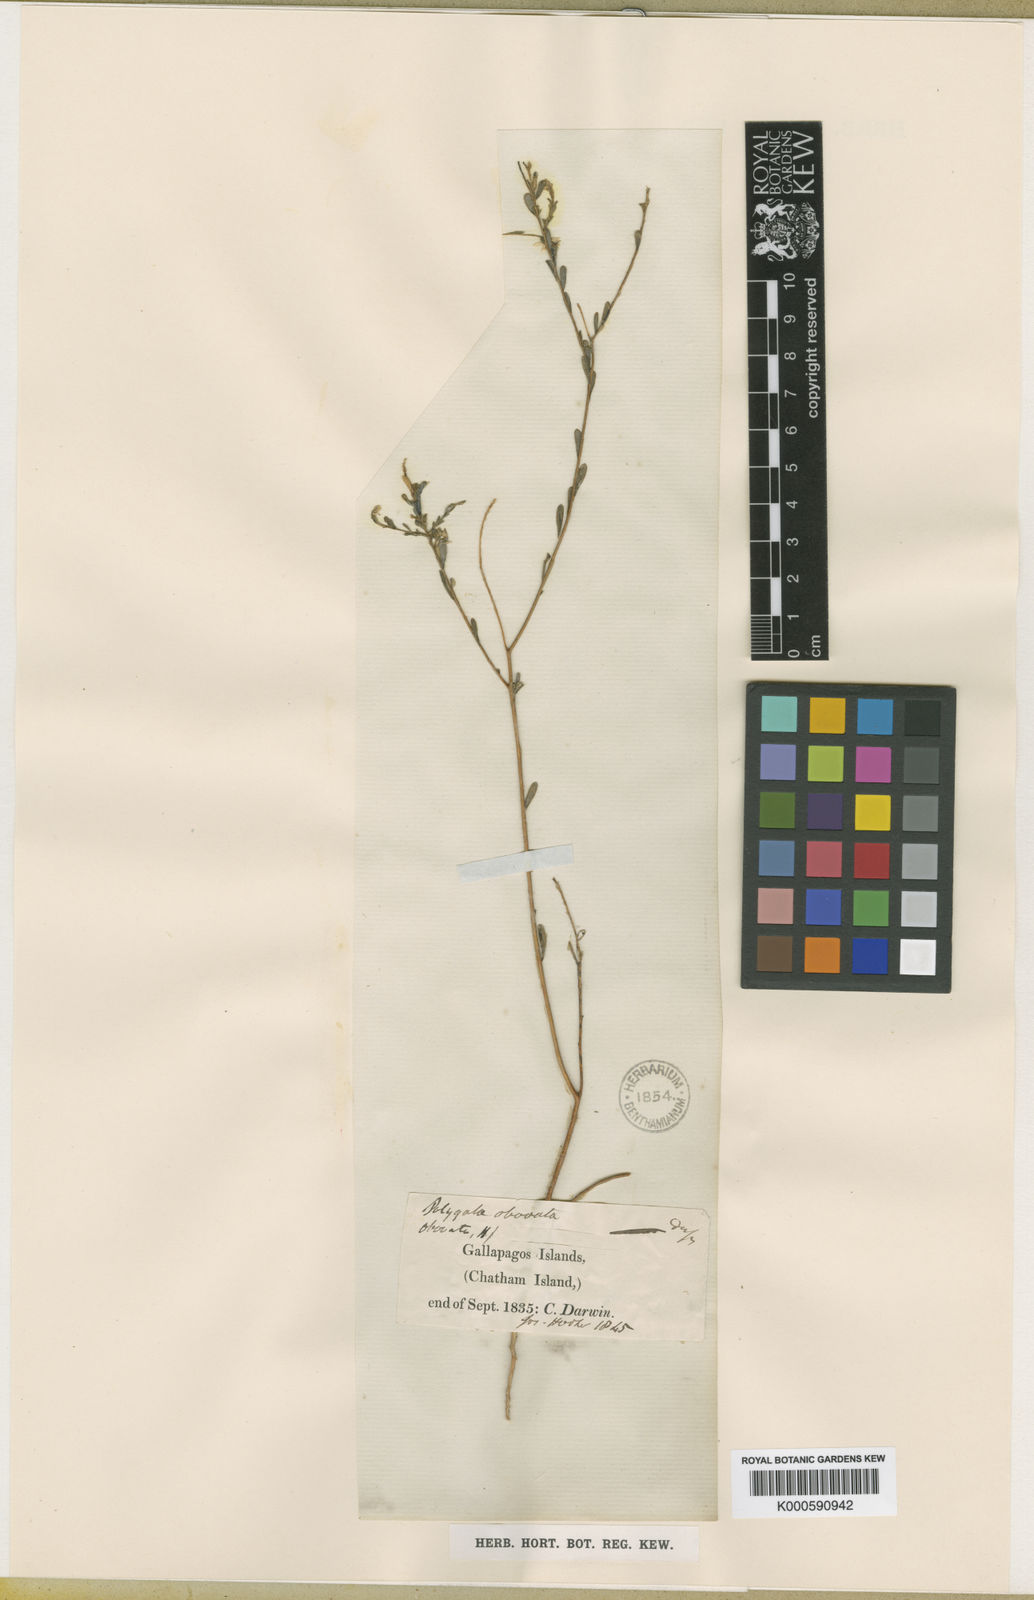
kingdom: Plantae
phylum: Tracheophyta
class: Magnoliopsida
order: Fabales
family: Polygalaceae
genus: Polygala
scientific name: Polygala galapageia
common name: Galapagos milkwort
